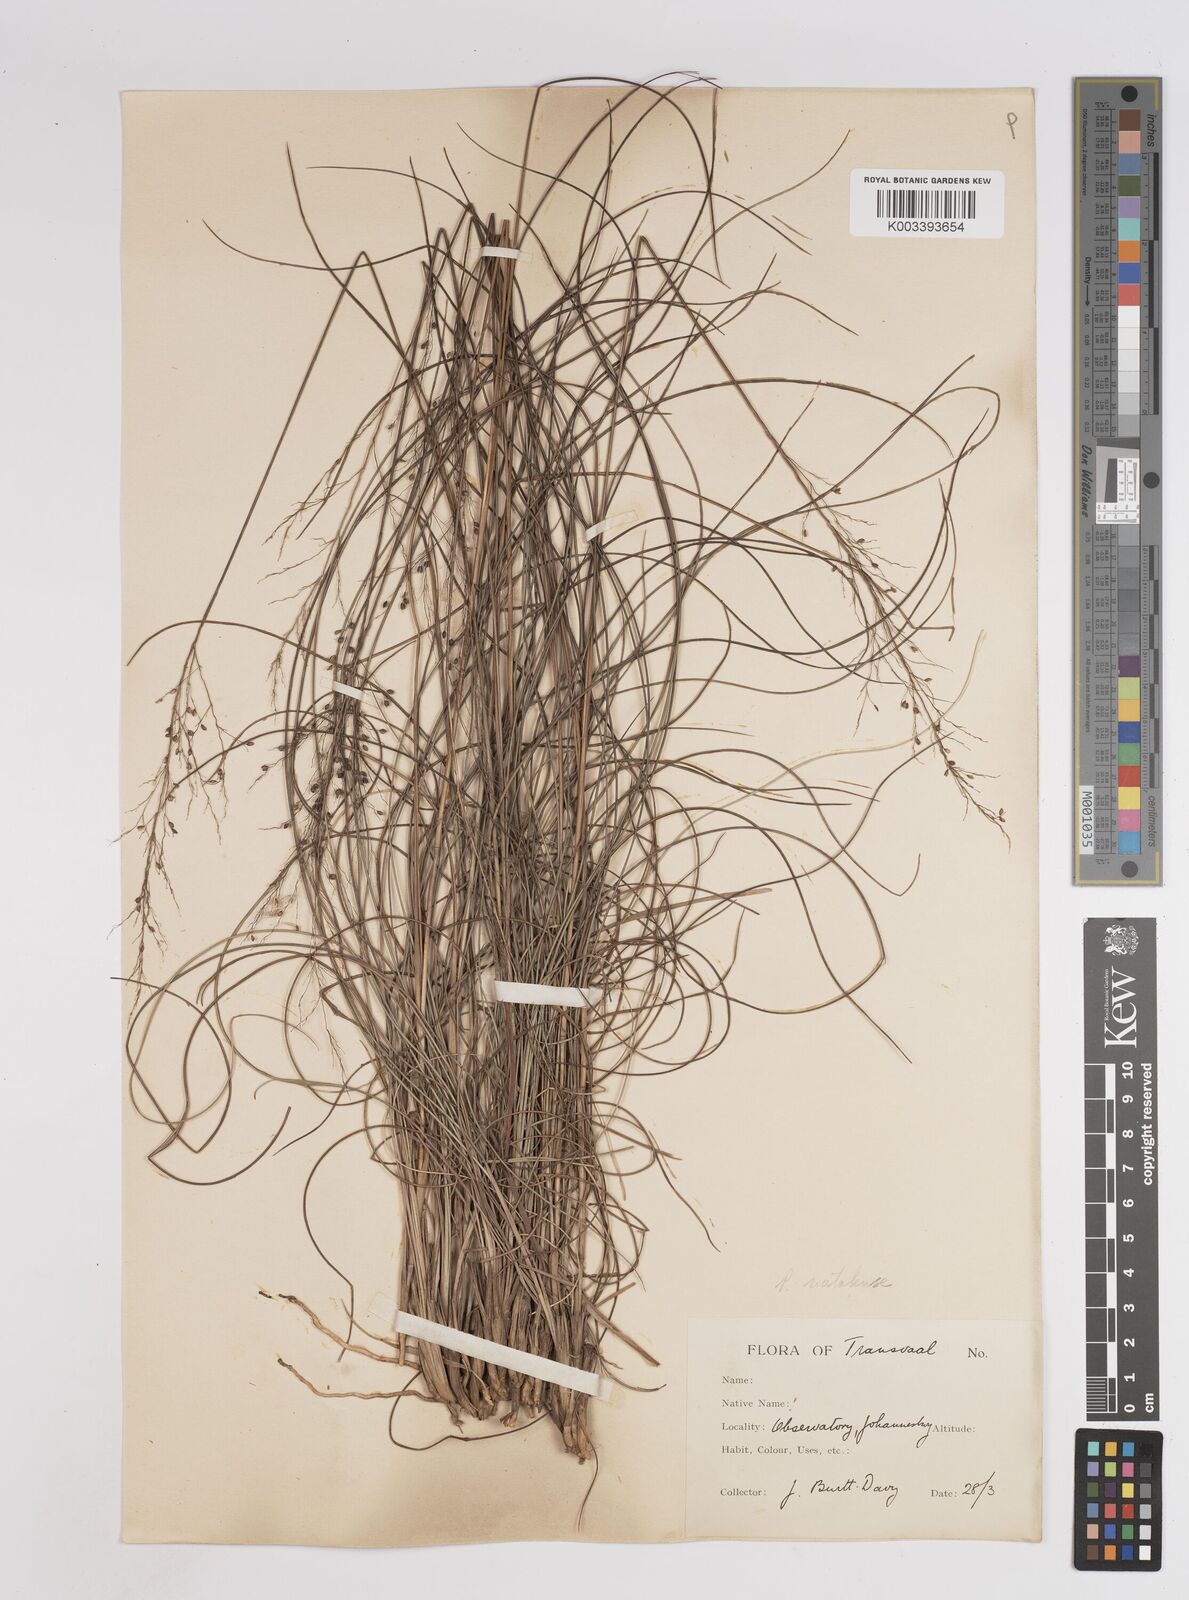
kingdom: Plantae
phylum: Tracheophyta
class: Liliopsida
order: Poales
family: Poaceae
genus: Trichanthecium
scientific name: Trichanthecium natalense
